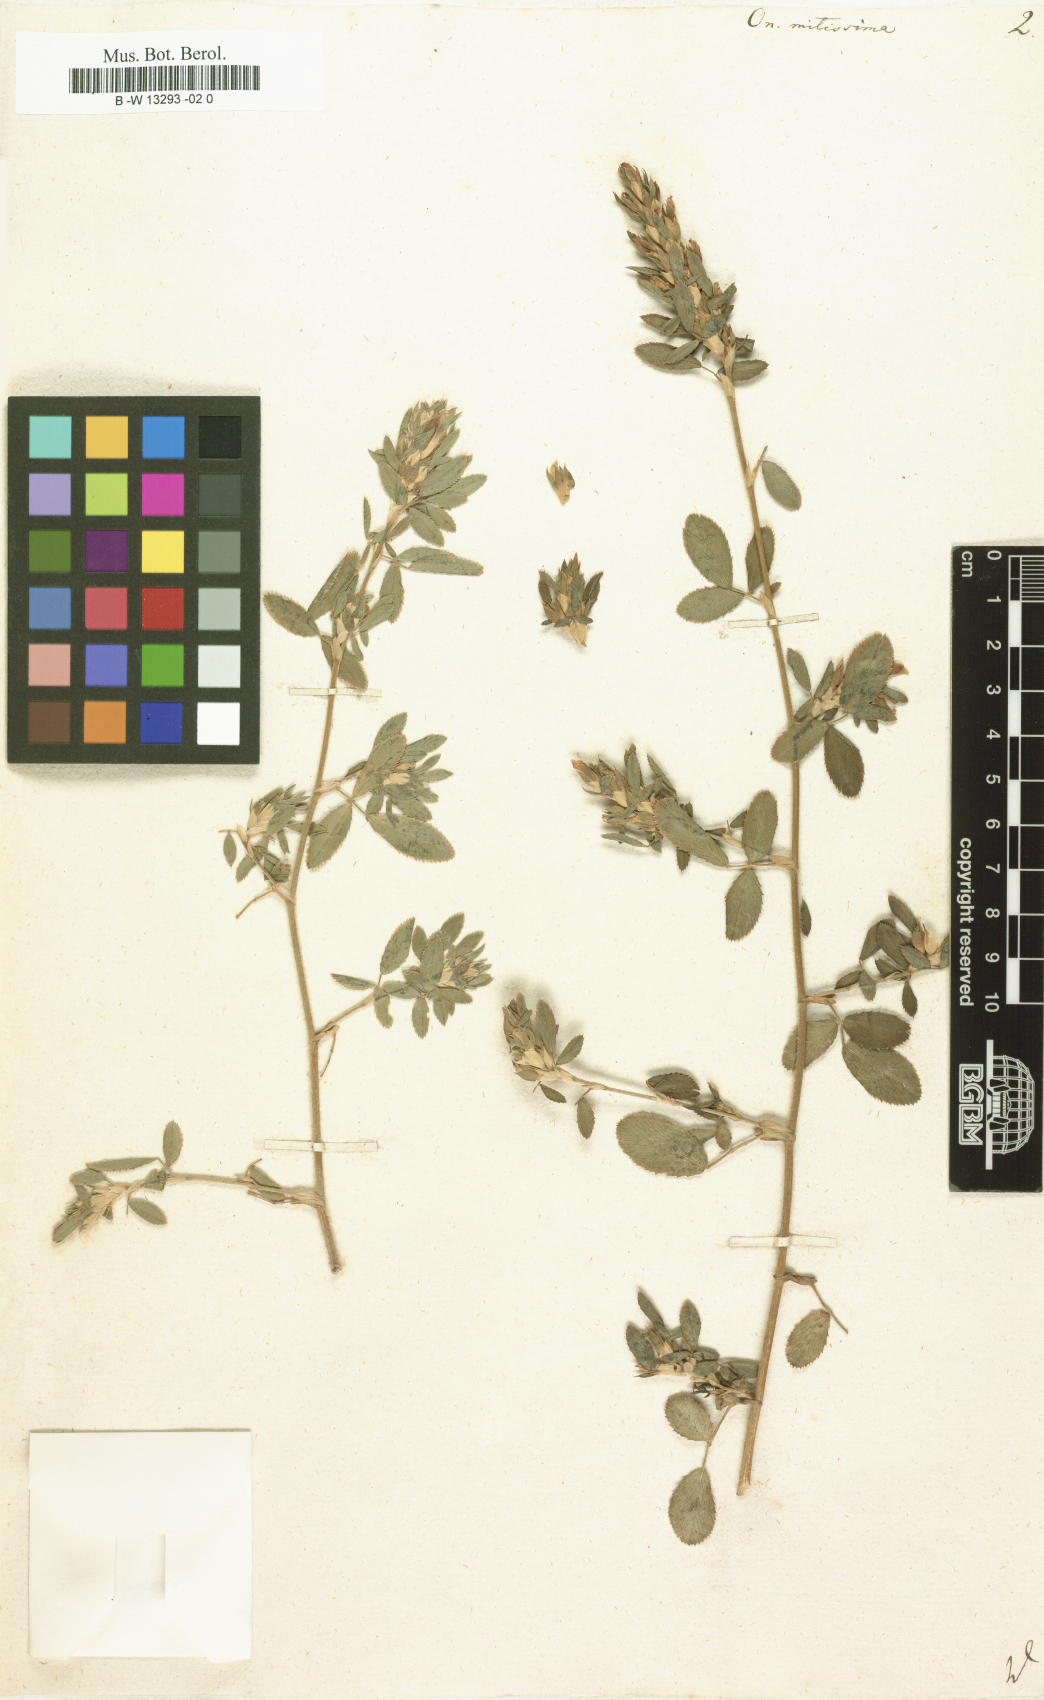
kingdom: Plantae
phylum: Tracheophyta
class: Magnoliopsida
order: Fabales
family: Fabaceae
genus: Ononis
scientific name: Ononis mitissima
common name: Mediterranean restharrow
